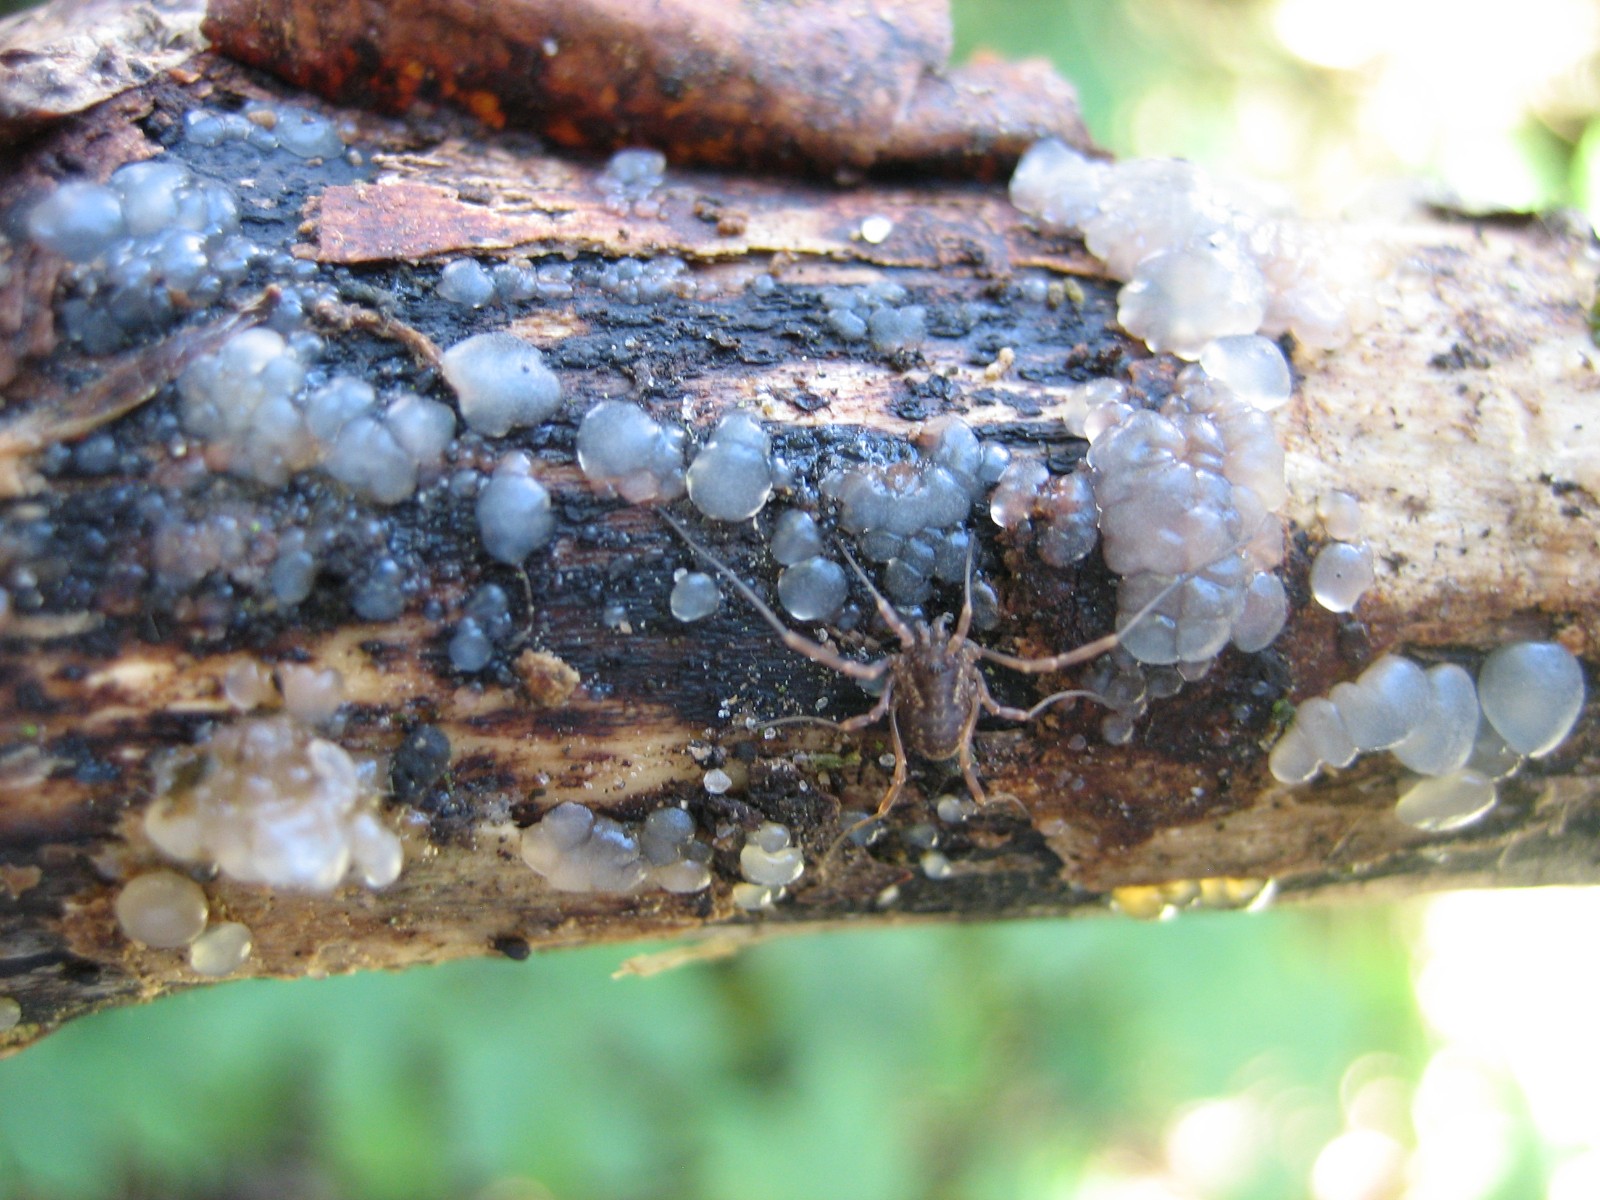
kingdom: Fungi
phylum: Basidiomycota
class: Agaricomycetes
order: Auriculariales
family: Hyaloriaceae
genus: Myxarium
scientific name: Myxarium
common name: bævretop
